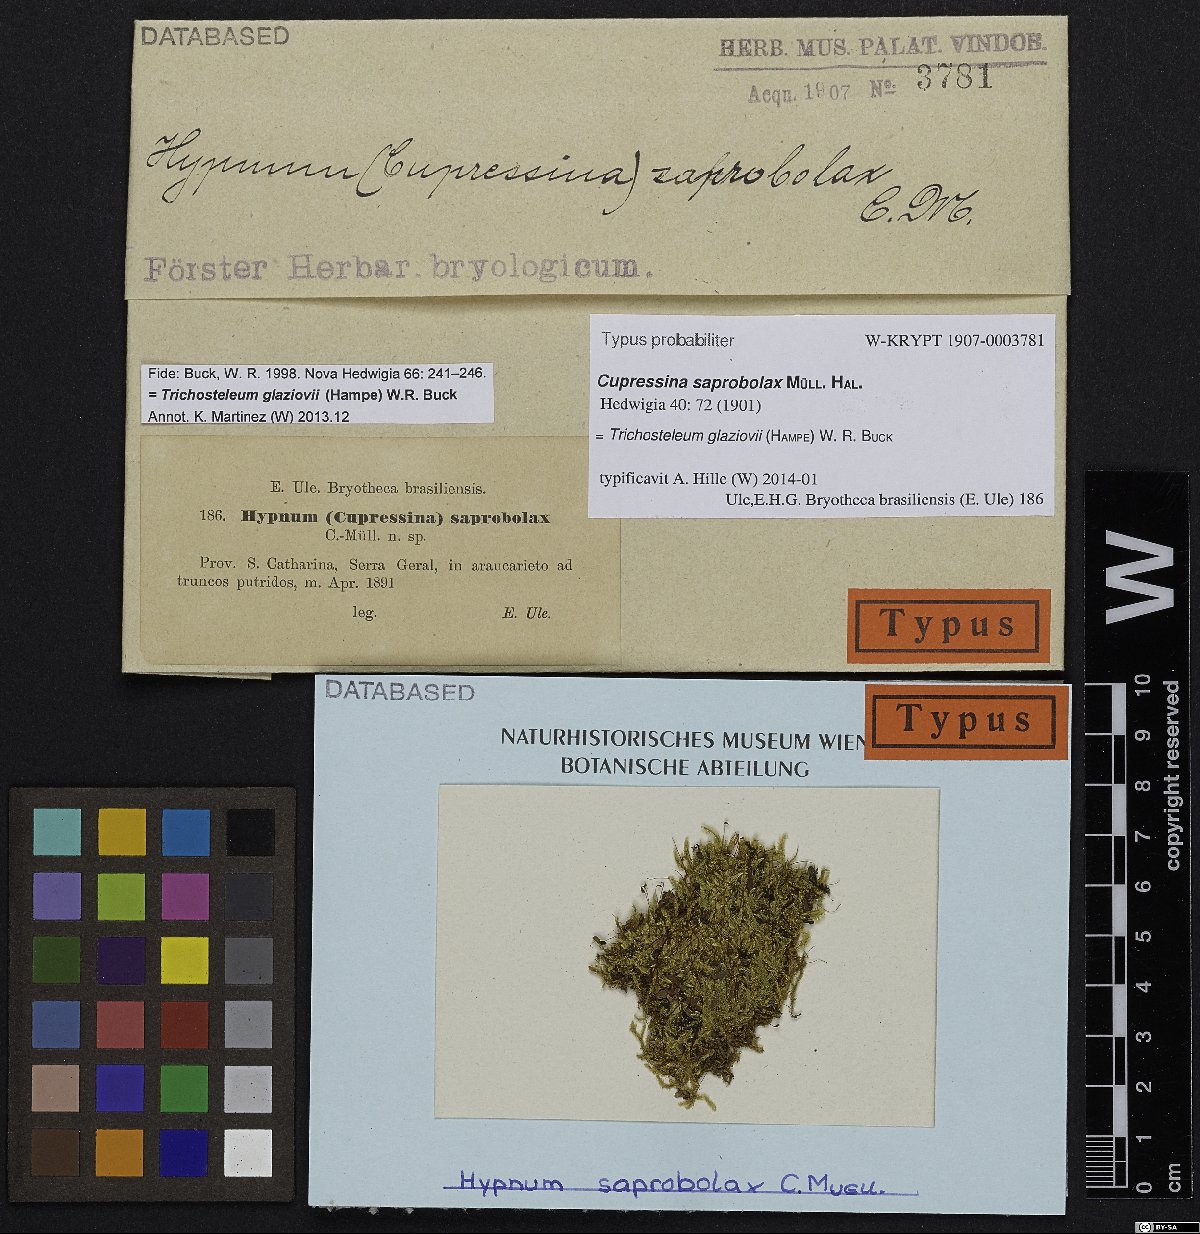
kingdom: Plantae
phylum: Bryophyta
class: Bryopsida
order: Hypnales
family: Sematophyllaceae
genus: Trichosteleum
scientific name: Trichosteleum glaziovii
